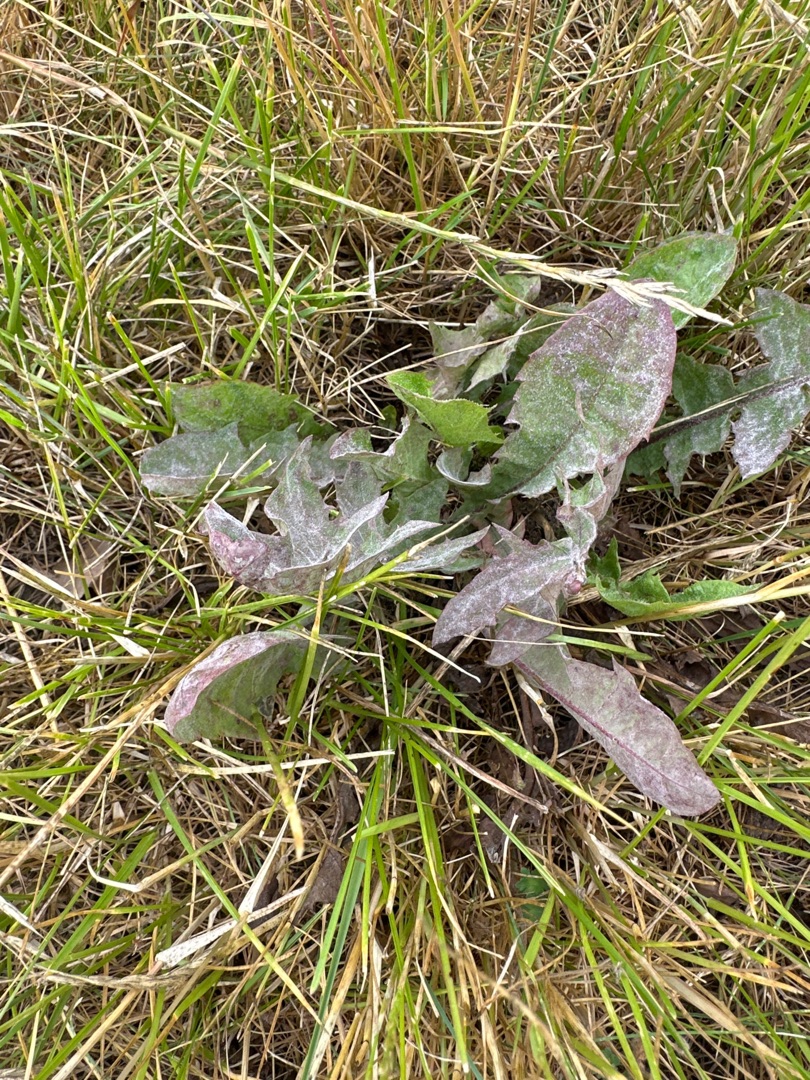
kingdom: Plantae
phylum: Tracheophyta
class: Magnoliopsida
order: Asterales
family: Asteraceae
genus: Taraxacum
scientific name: Taraxacum
